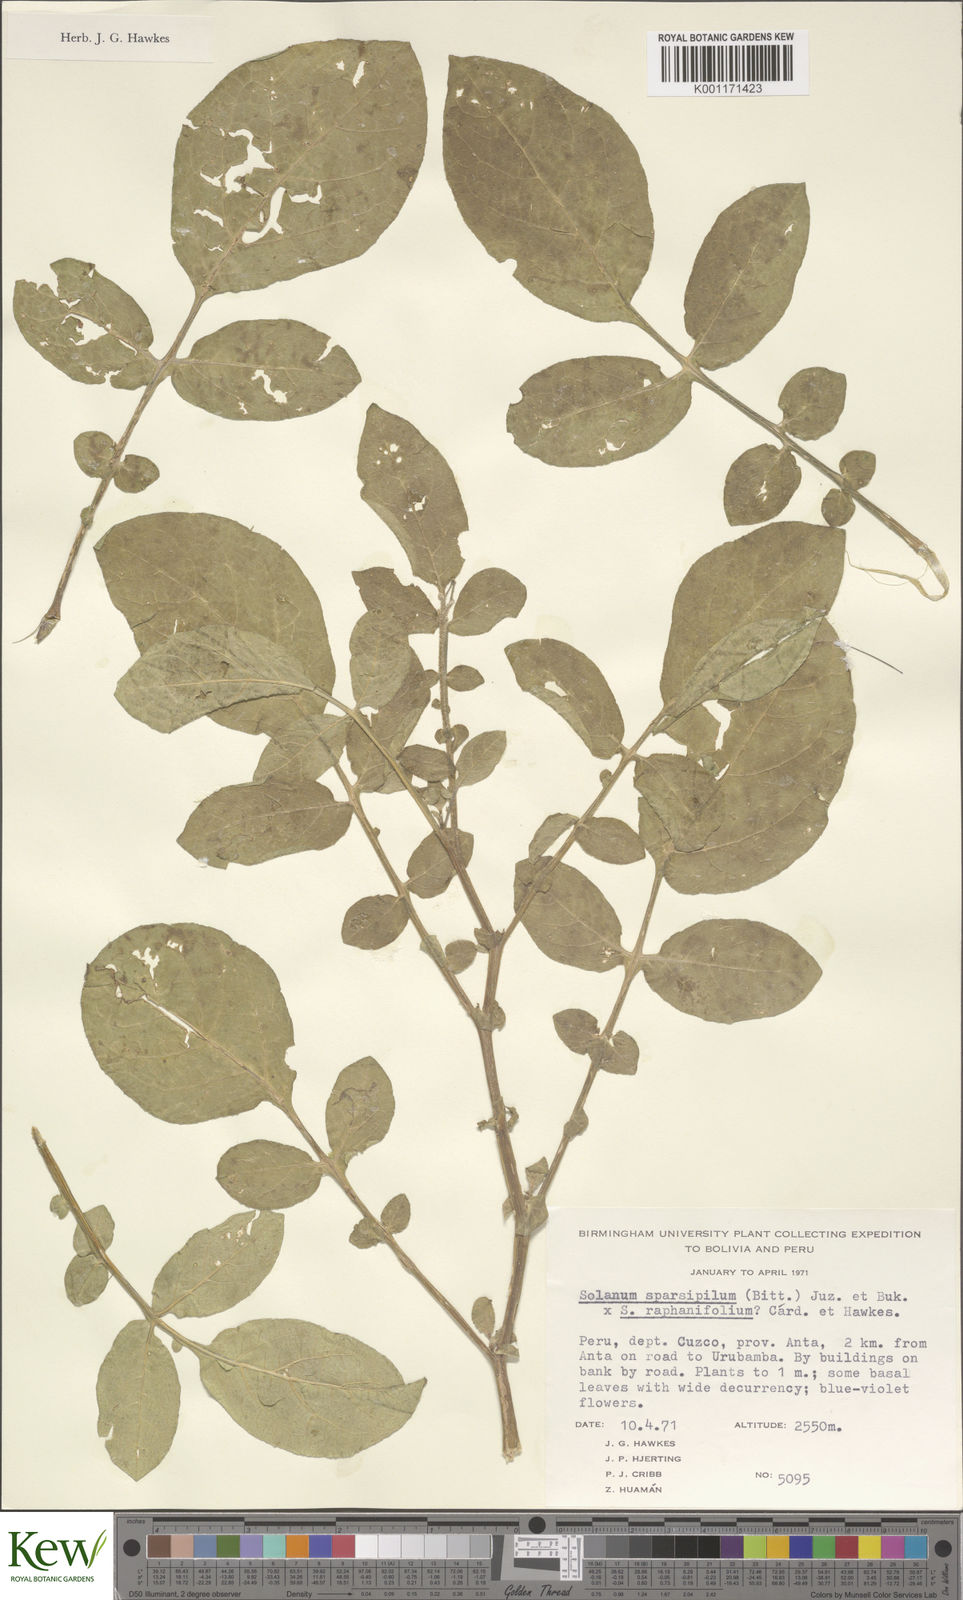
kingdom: Plantae
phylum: Tracheophyta
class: Magnoliopsida
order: Solanales
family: Solanaceae
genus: Solanum
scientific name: Solanum brevicaule
